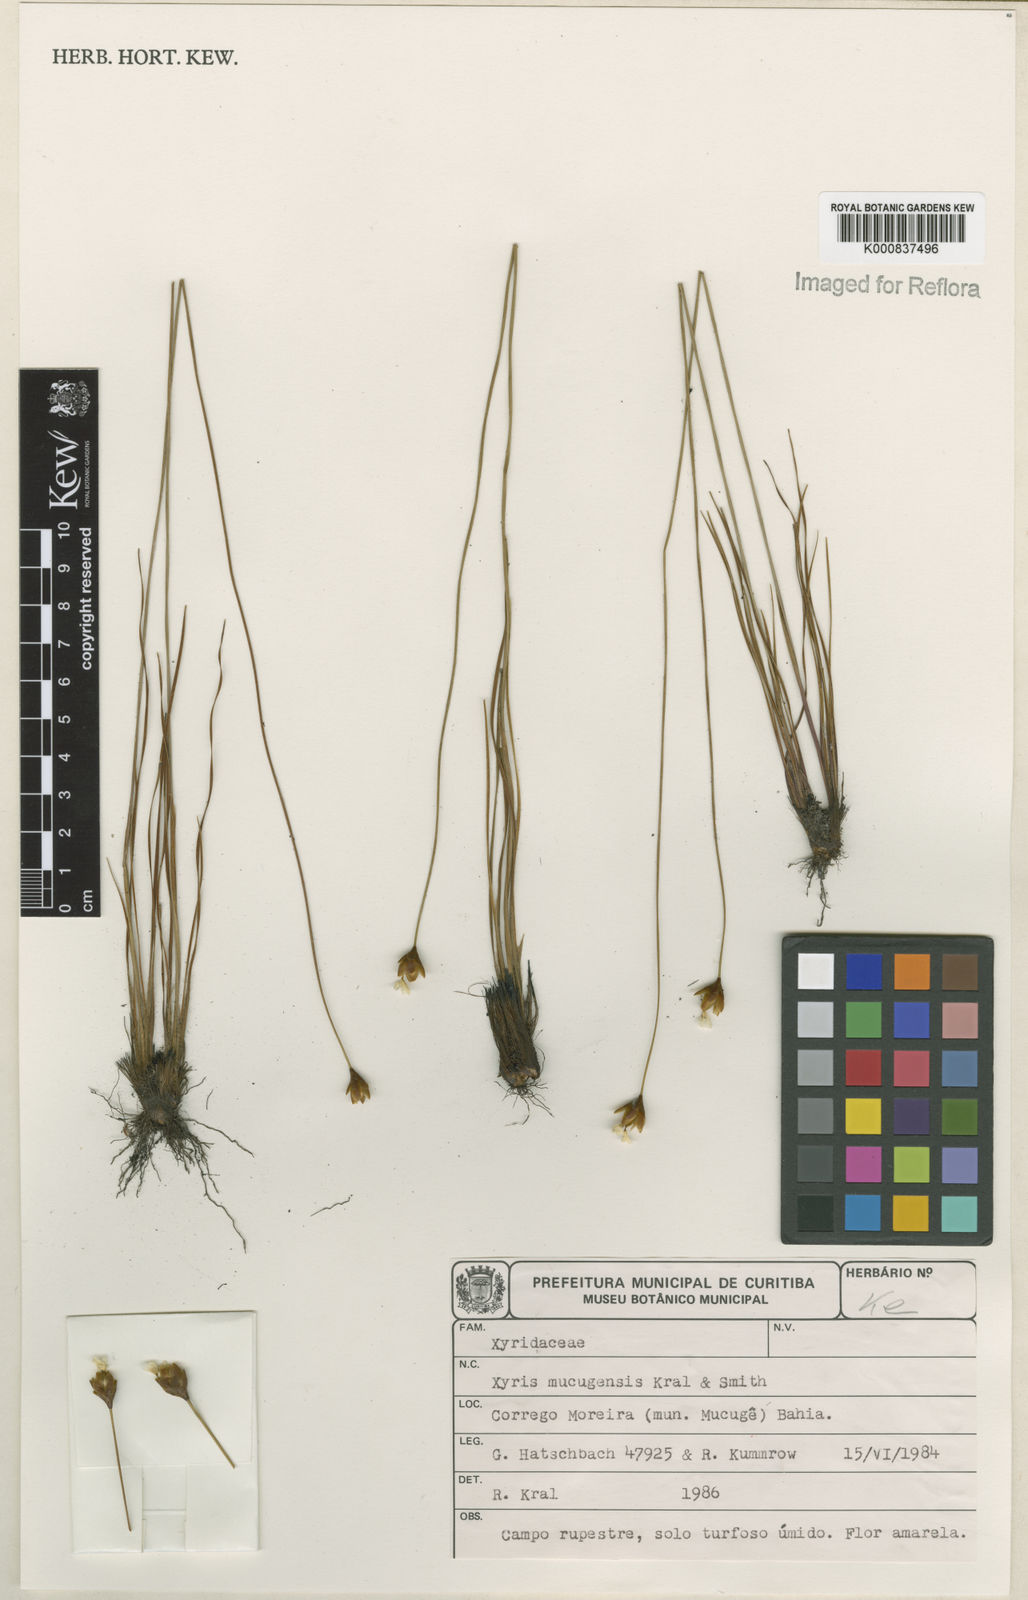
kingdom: Plantae
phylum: Tracheophyta
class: Liliopsida
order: Poales
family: Xyridaceae
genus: Xyris
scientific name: Xyris mucujensis
